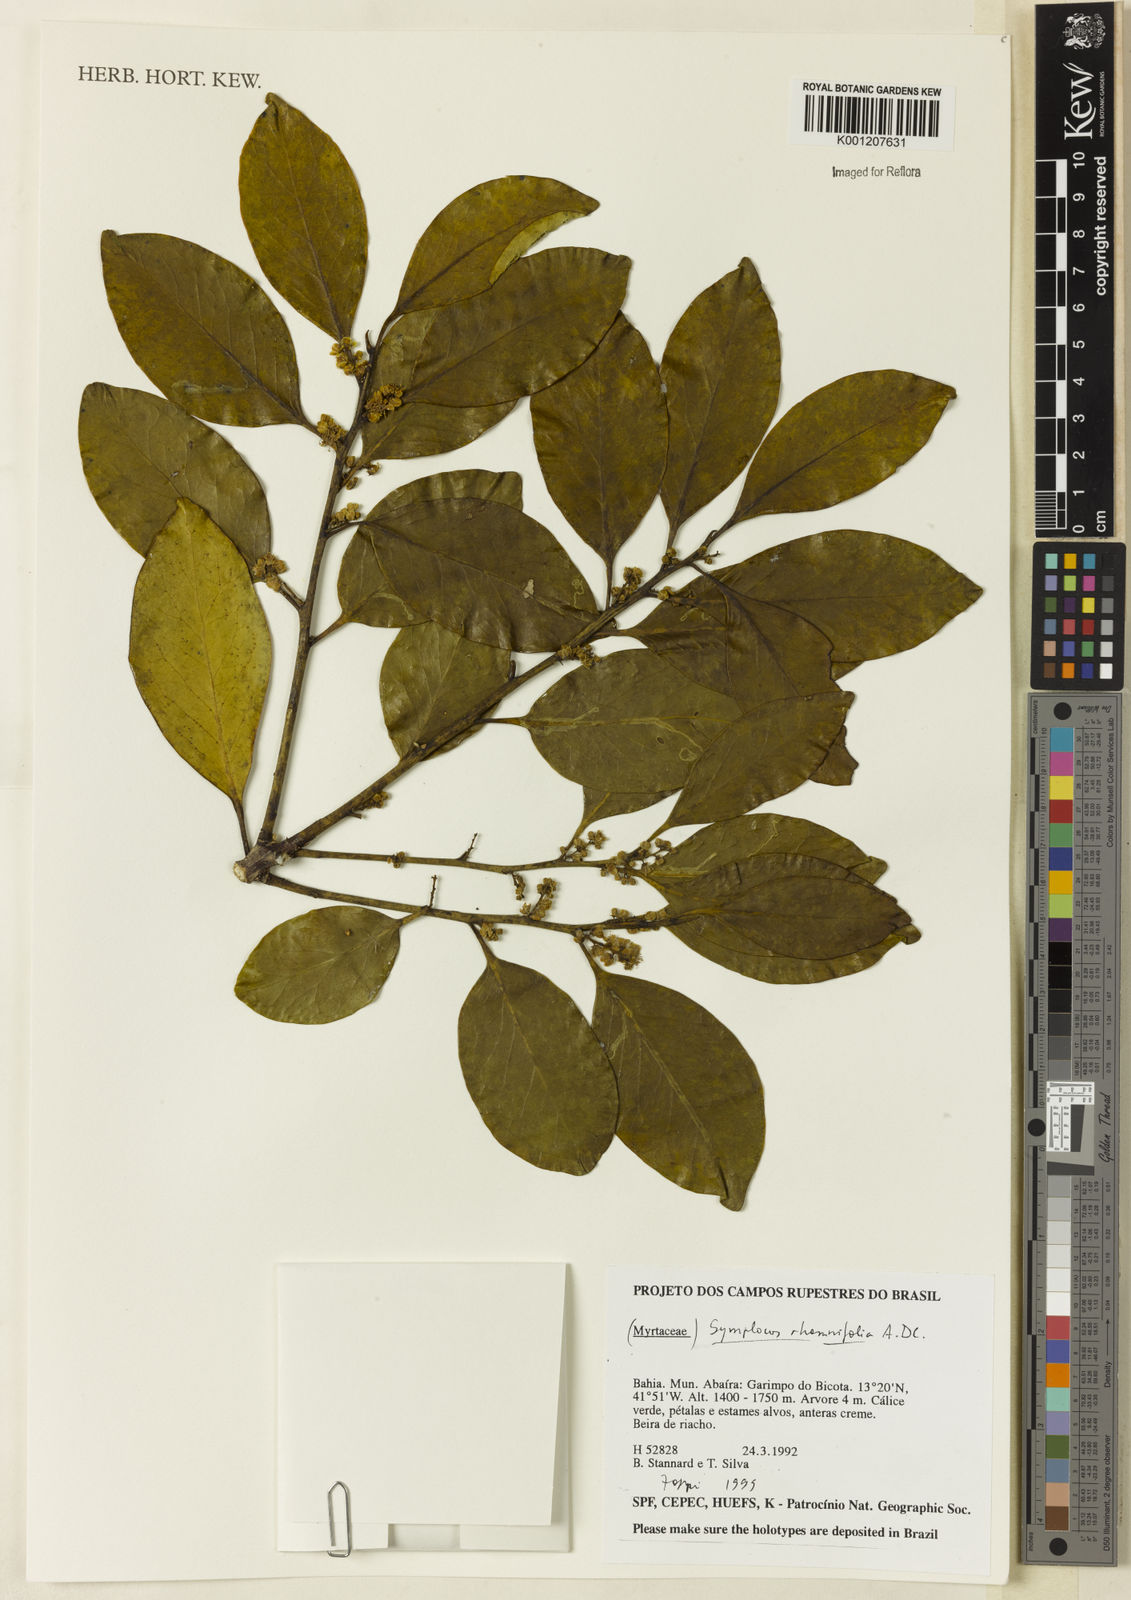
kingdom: Plantae
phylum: Tracheophyta
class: Magnoliopsida
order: Ericales
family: Symplocaceae
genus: Symplocos
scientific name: Symplocos rhamnifolia
